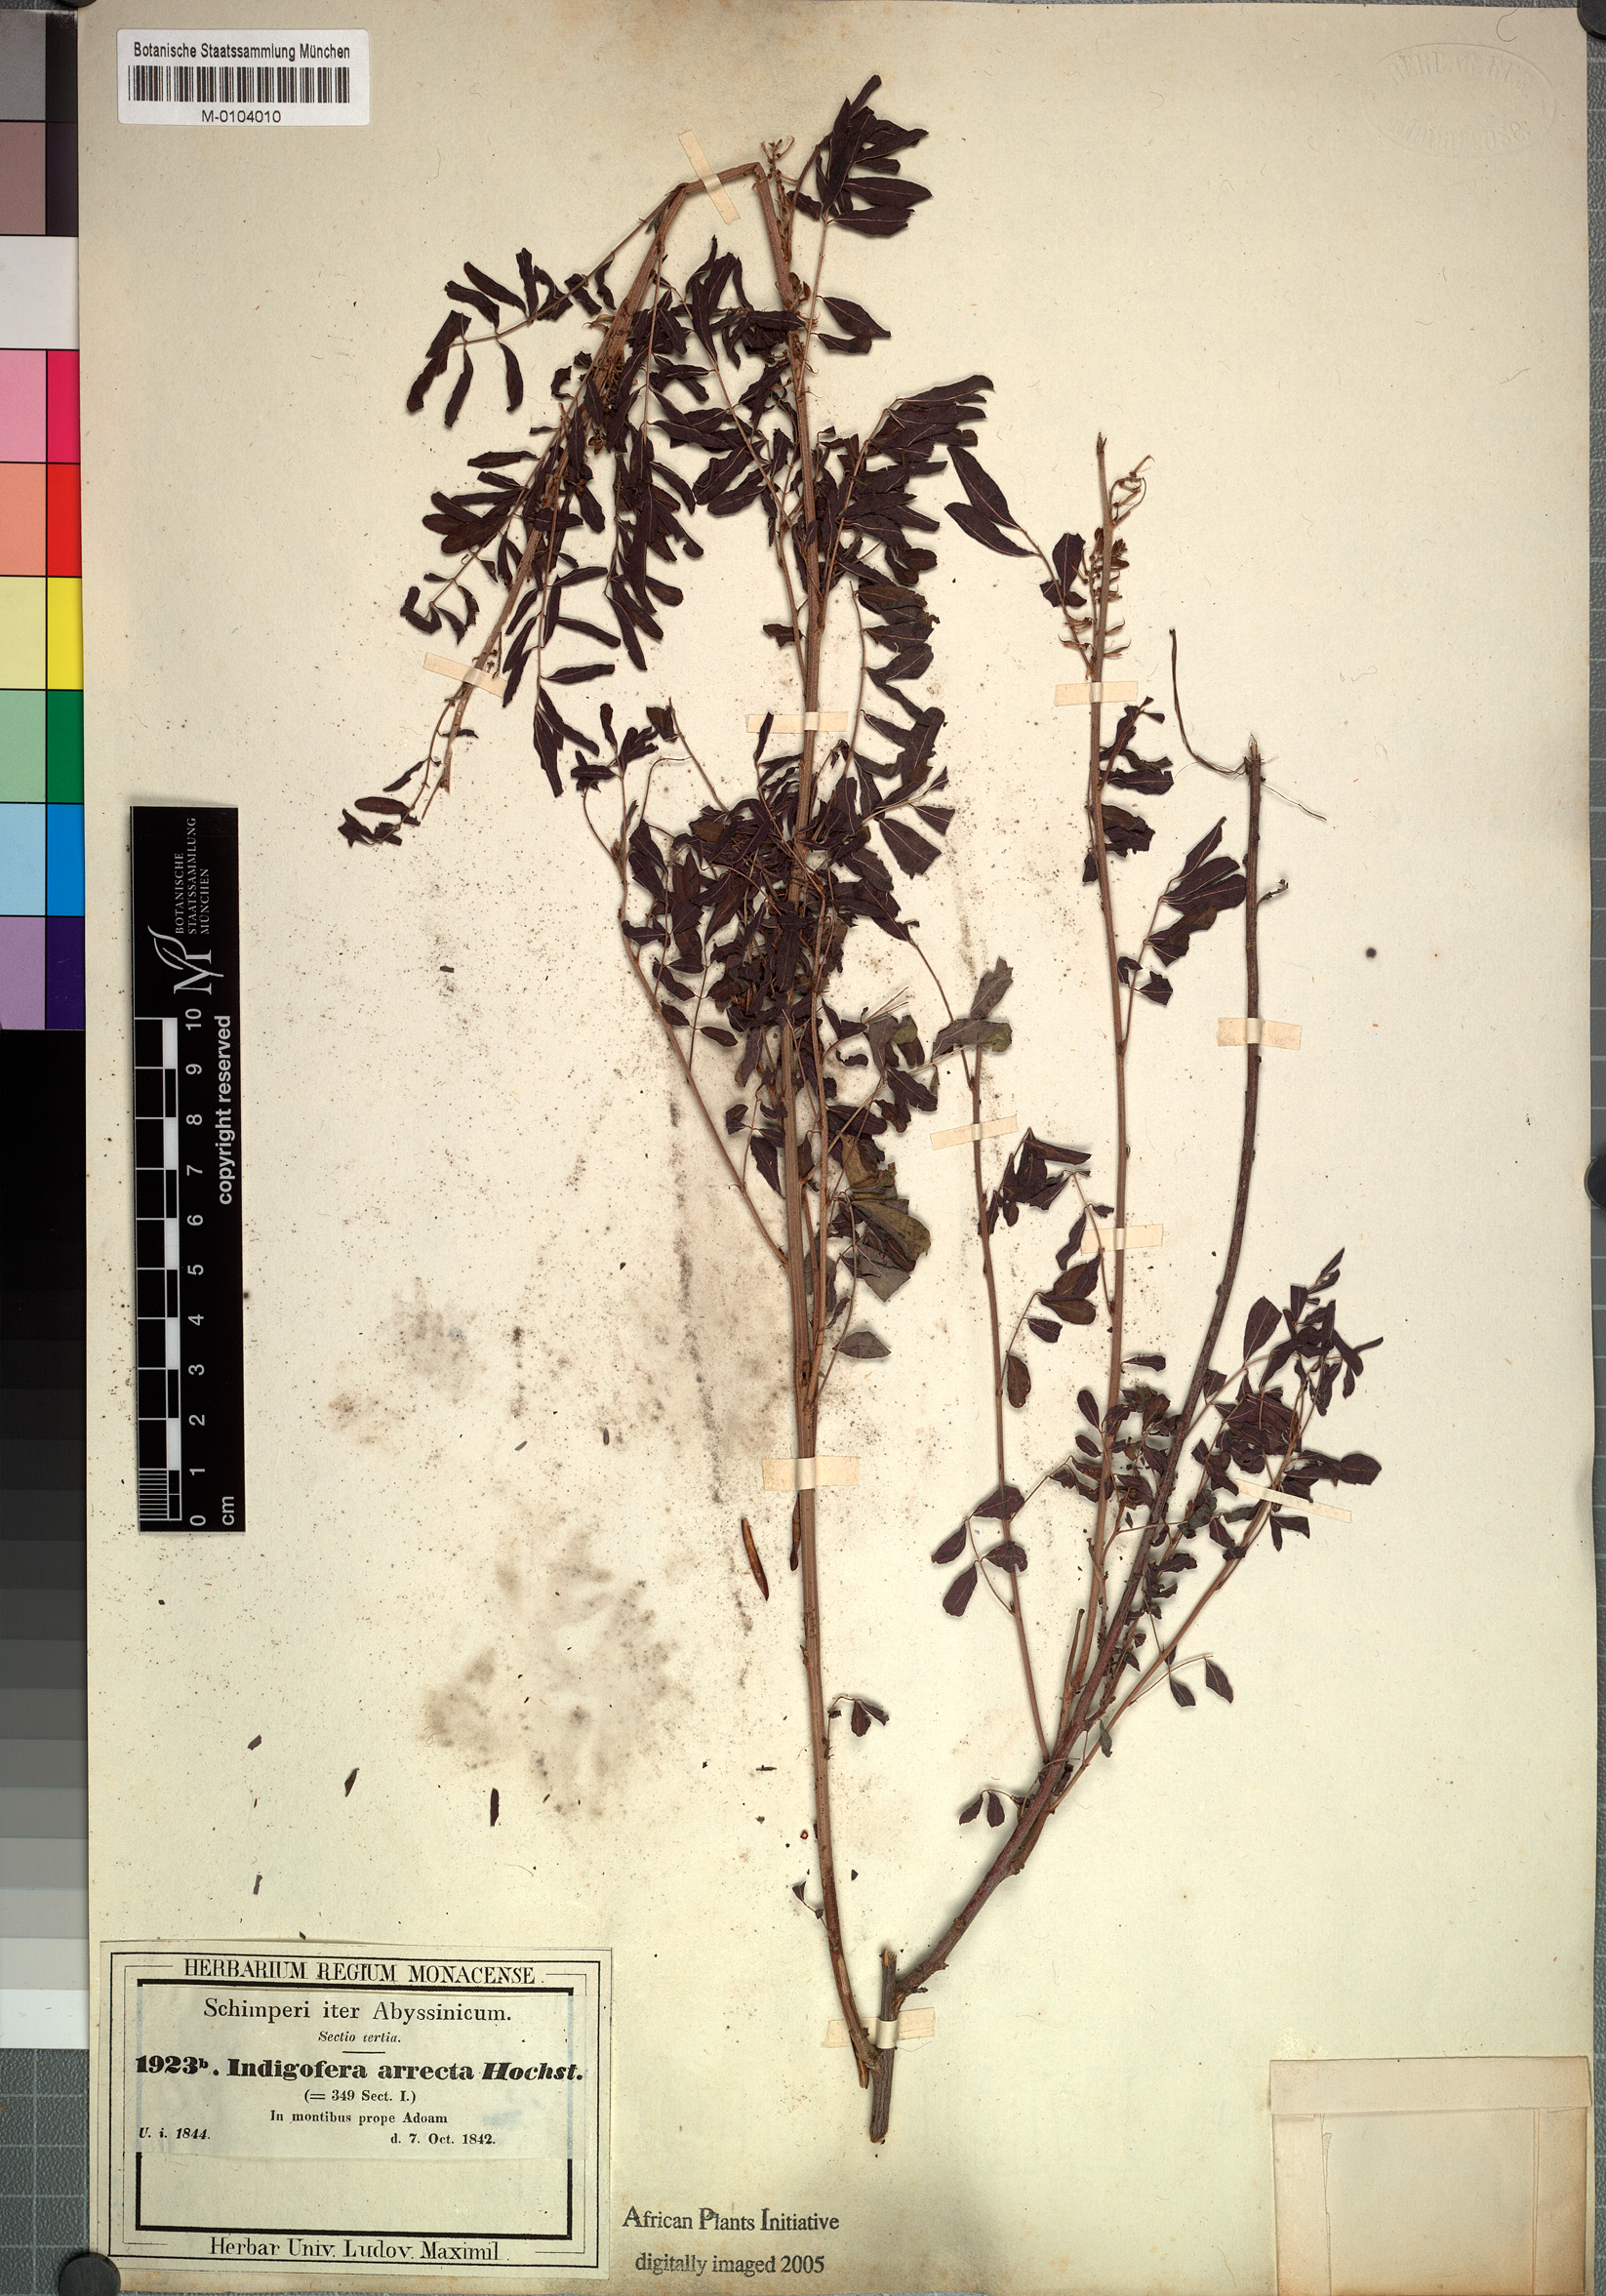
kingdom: Plantae
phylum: Tracheophyta
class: Magnoliopsida
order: Fabales
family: Fabaceae
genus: Indigofera
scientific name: Indigofera arrecta
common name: Bengal indigo
